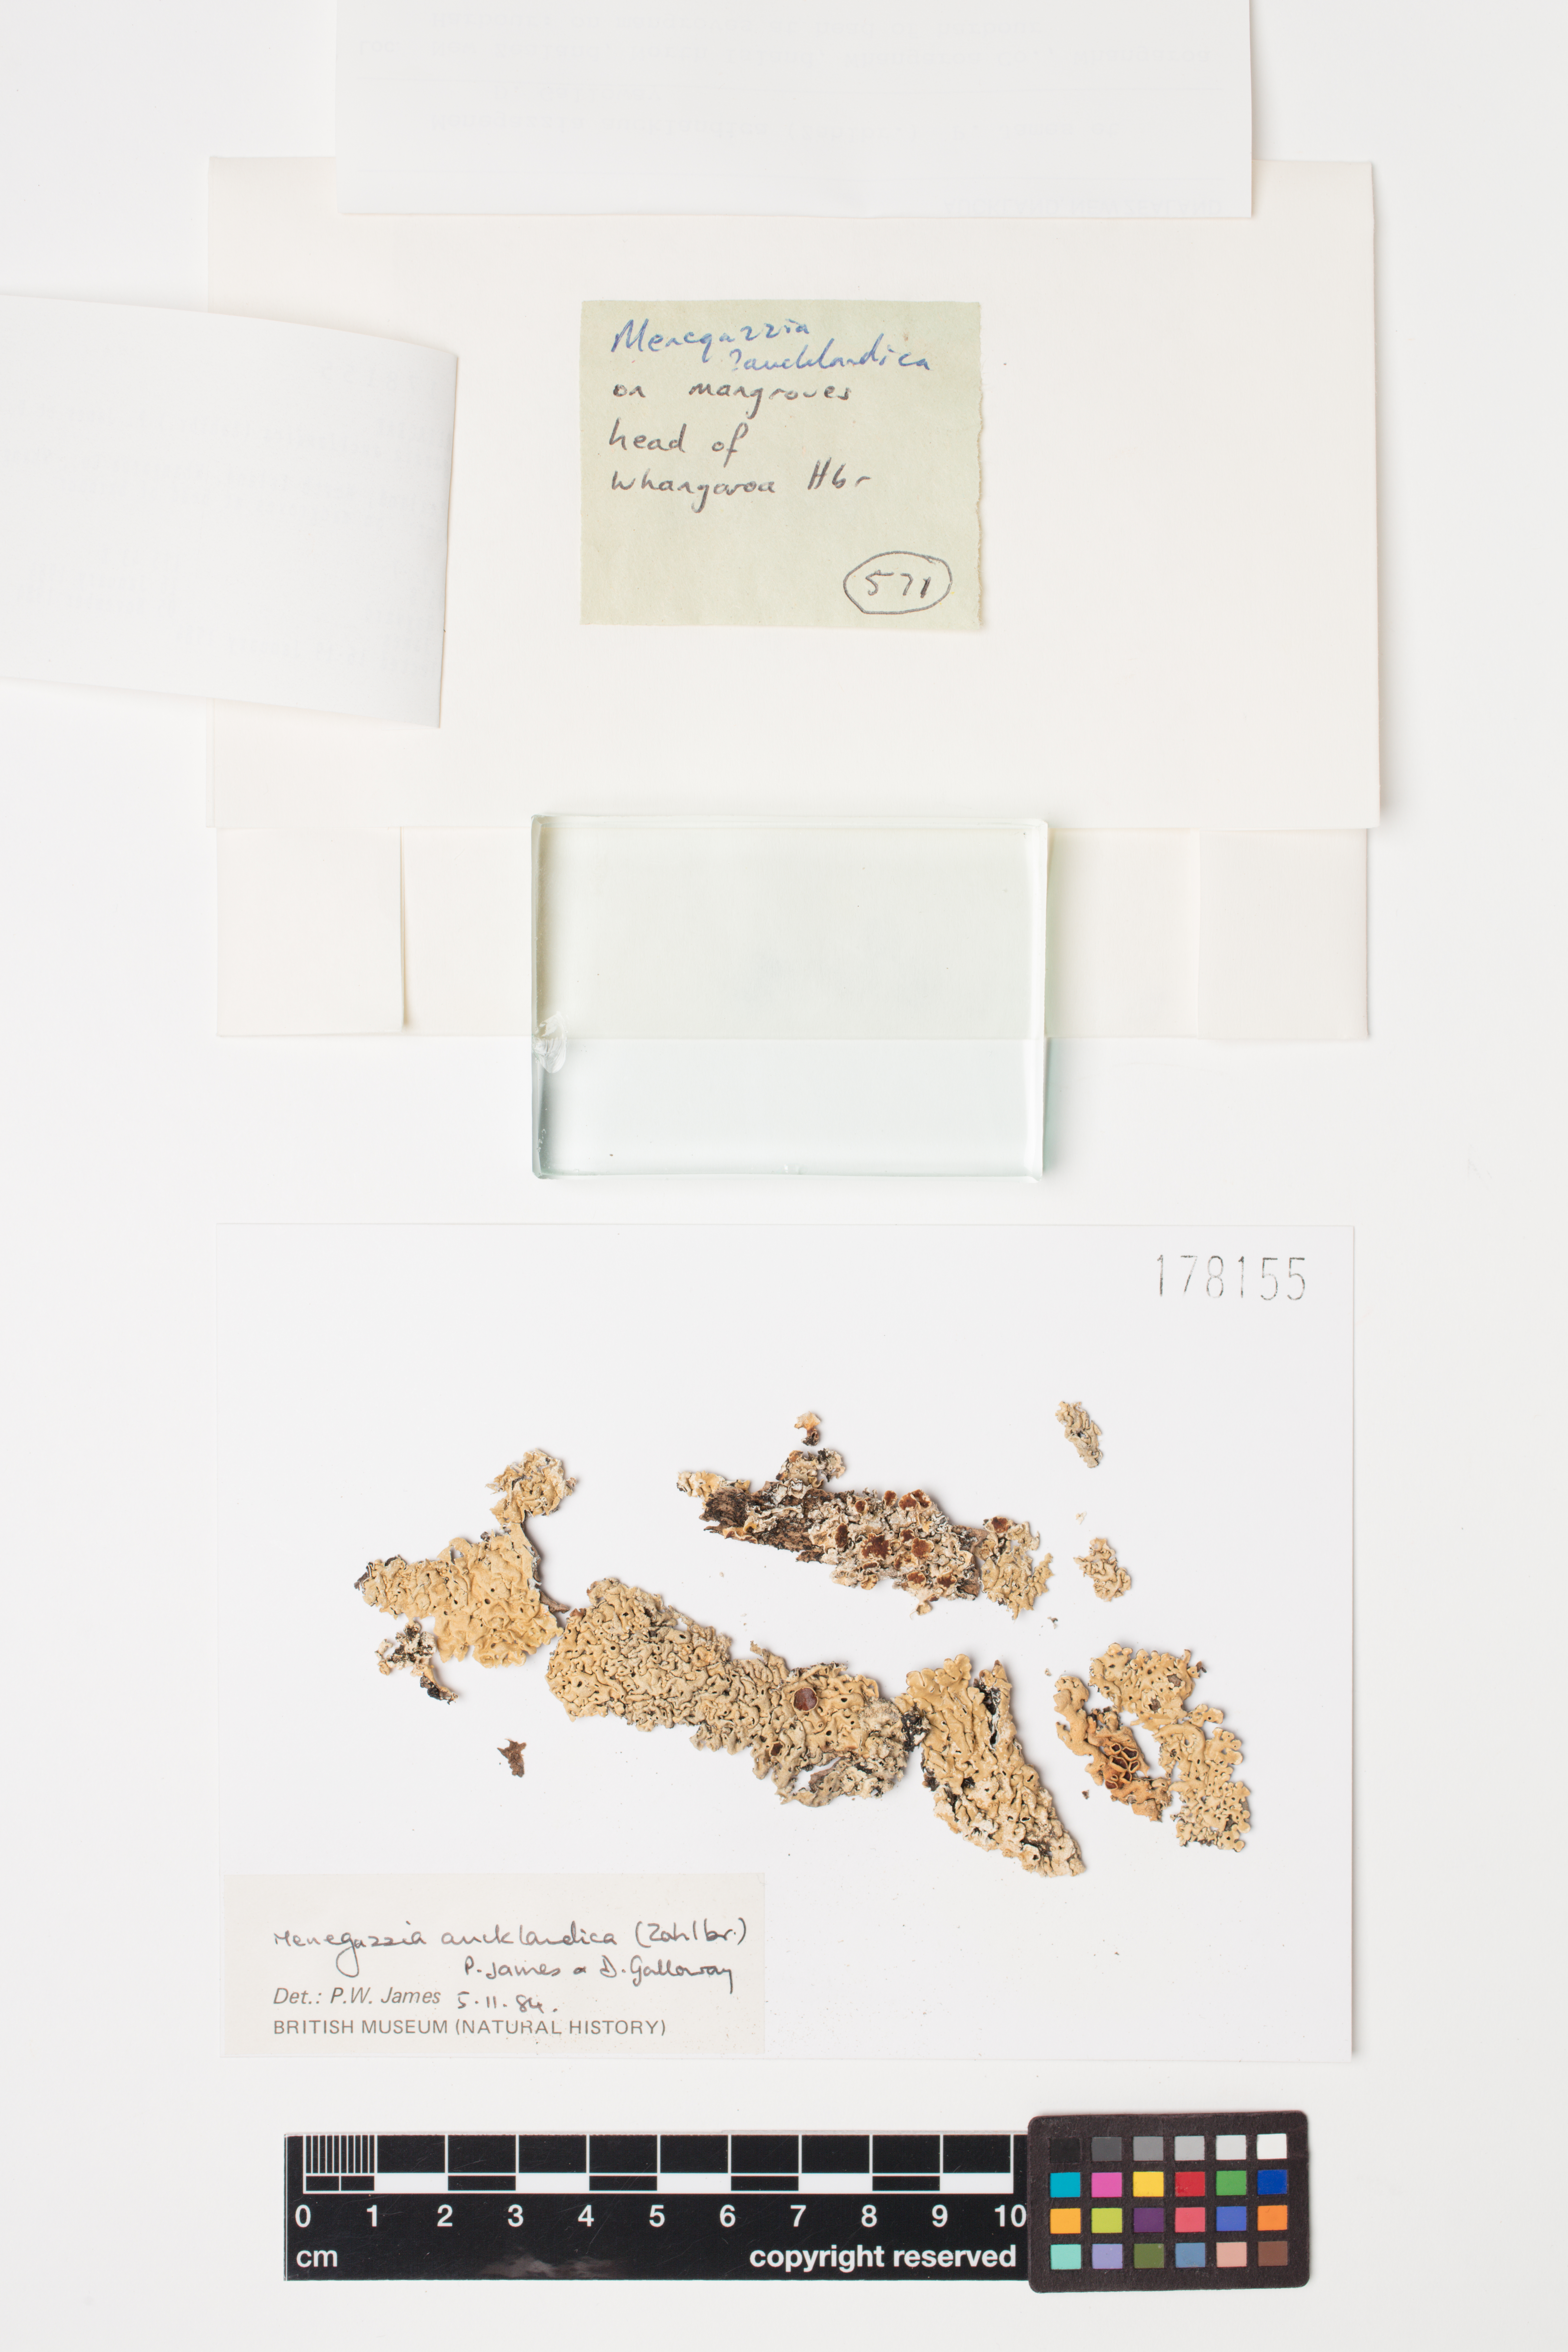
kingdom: Fungi
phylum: Ascomycota
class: Lecanoromycetes
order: Lecanorales
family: Parmeliaceae
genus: Menegazzia
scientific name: Menegazzia aucklandica
